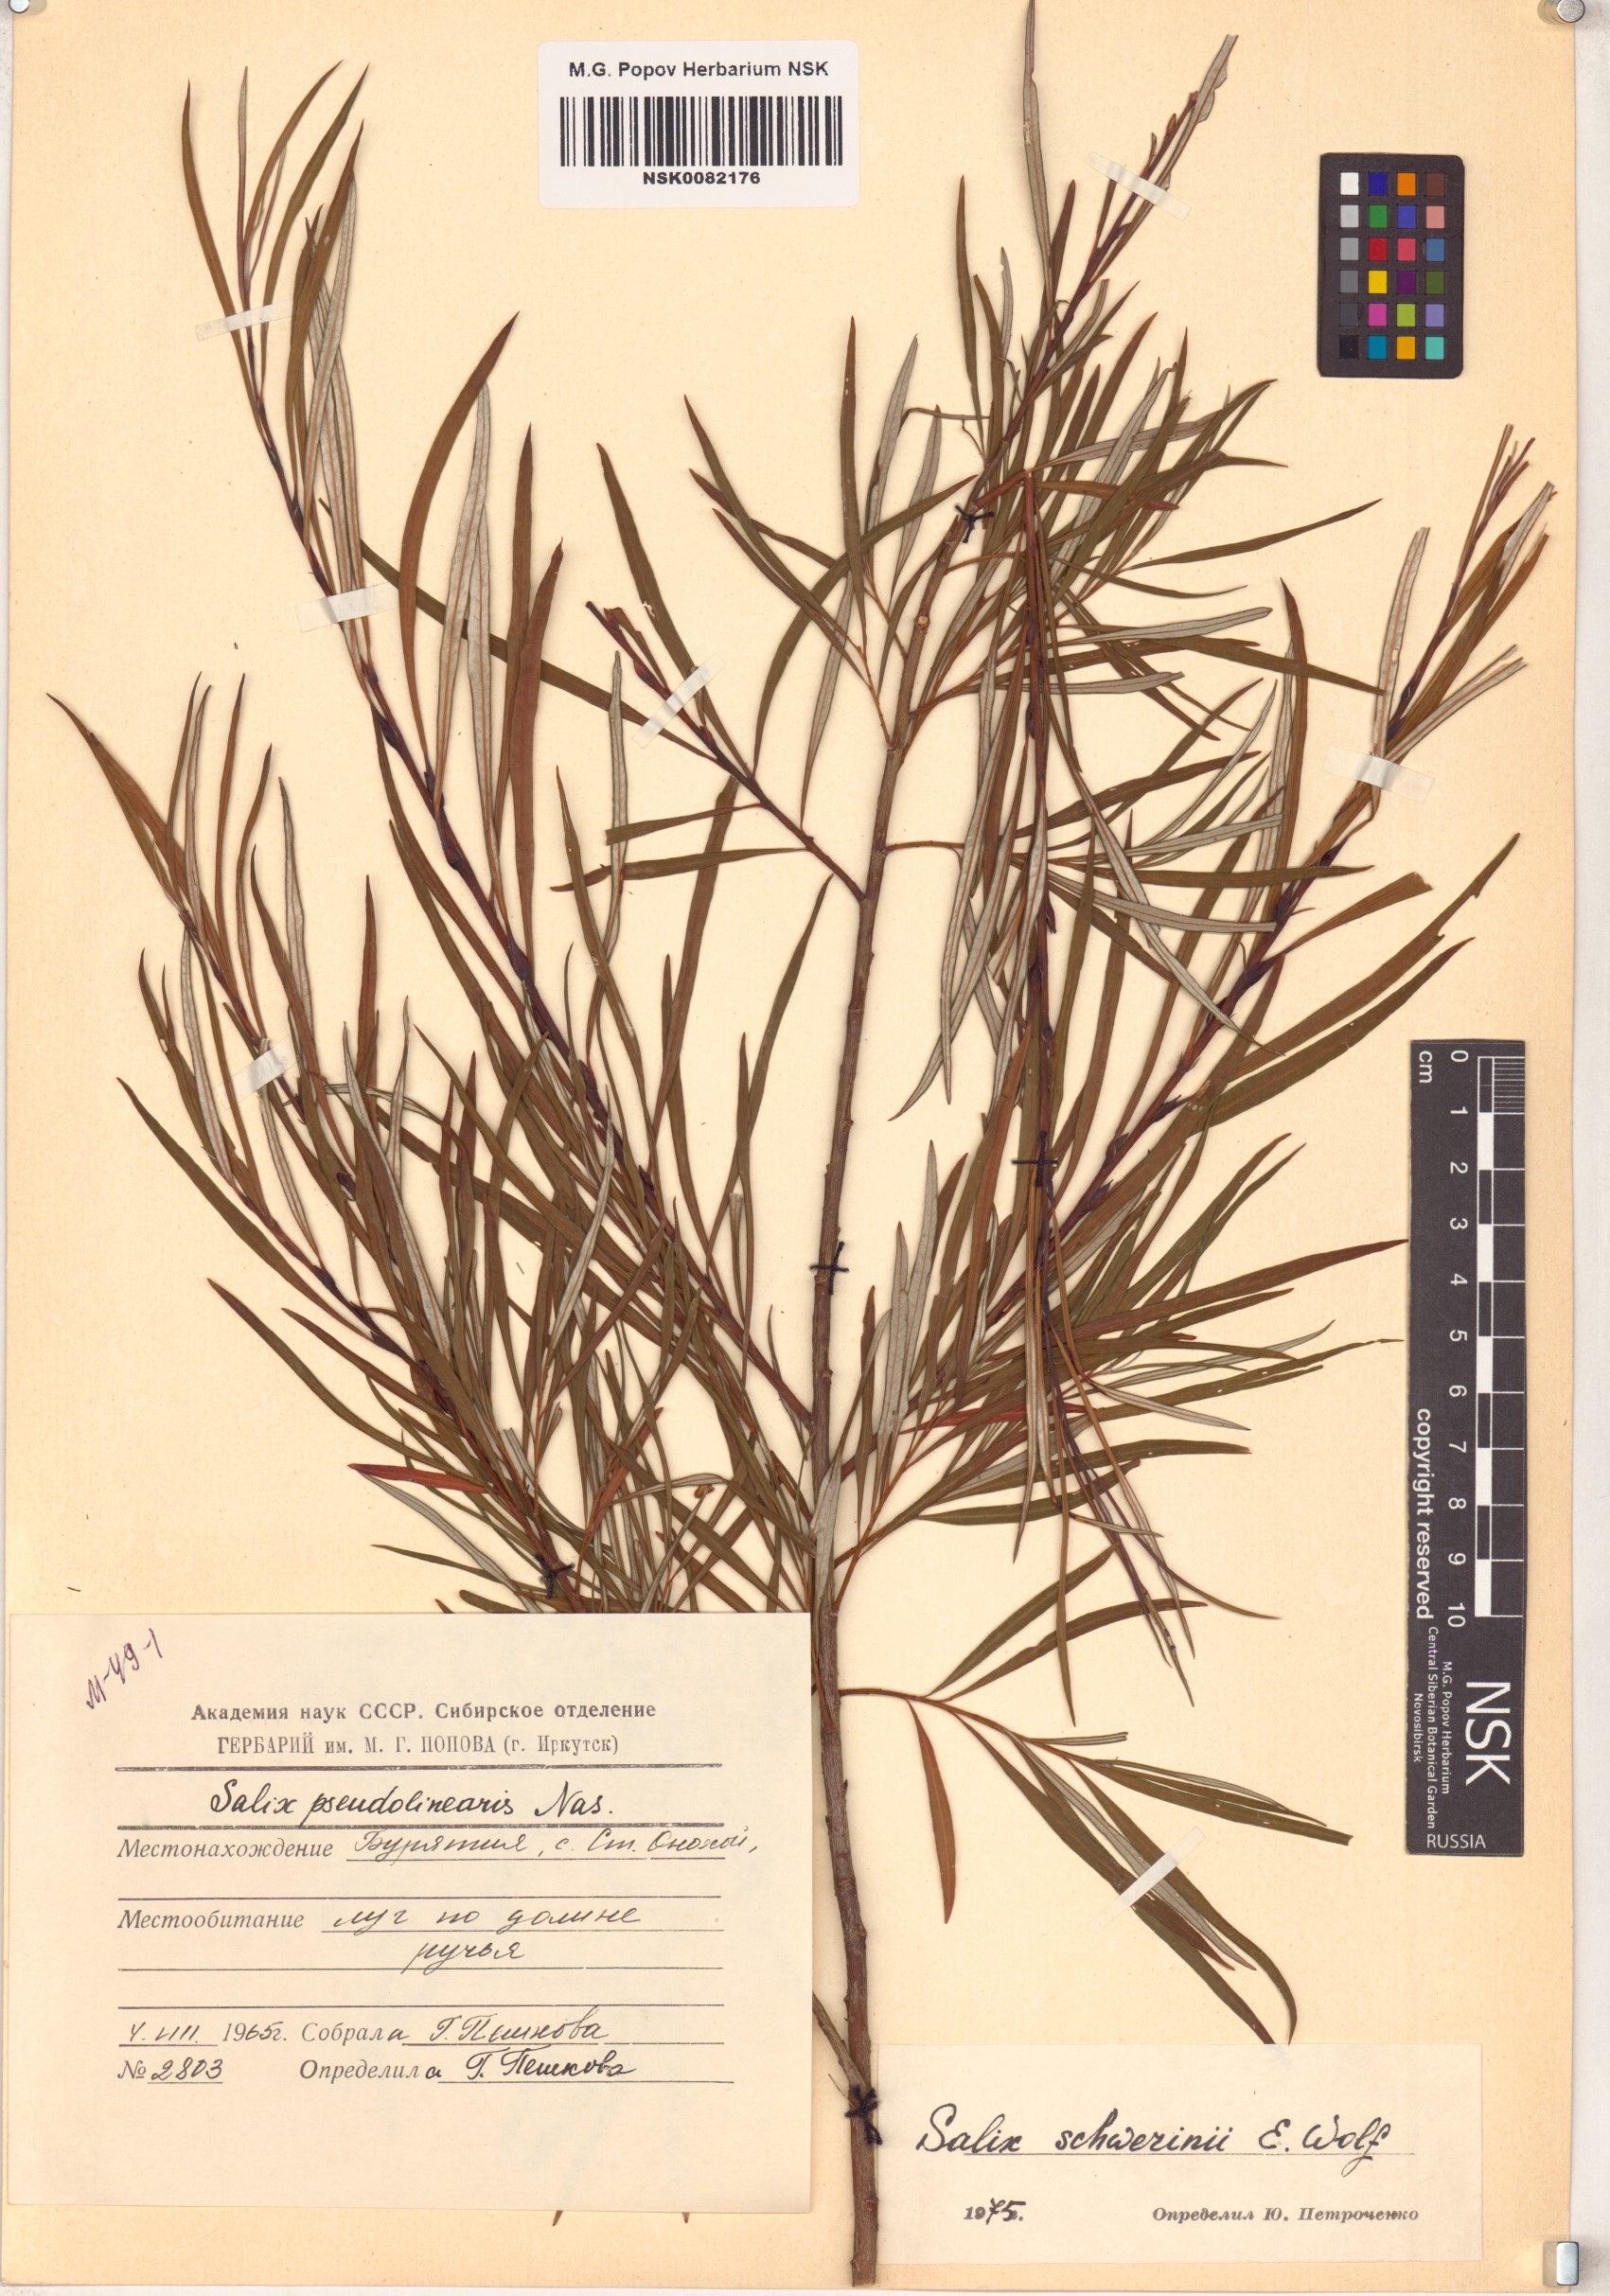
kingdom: Plantae
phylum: Tracheophyta
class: Magnoliopsida
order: Malpighiales
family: Salicaceae
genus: Salix
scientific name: Salix schwerinii
